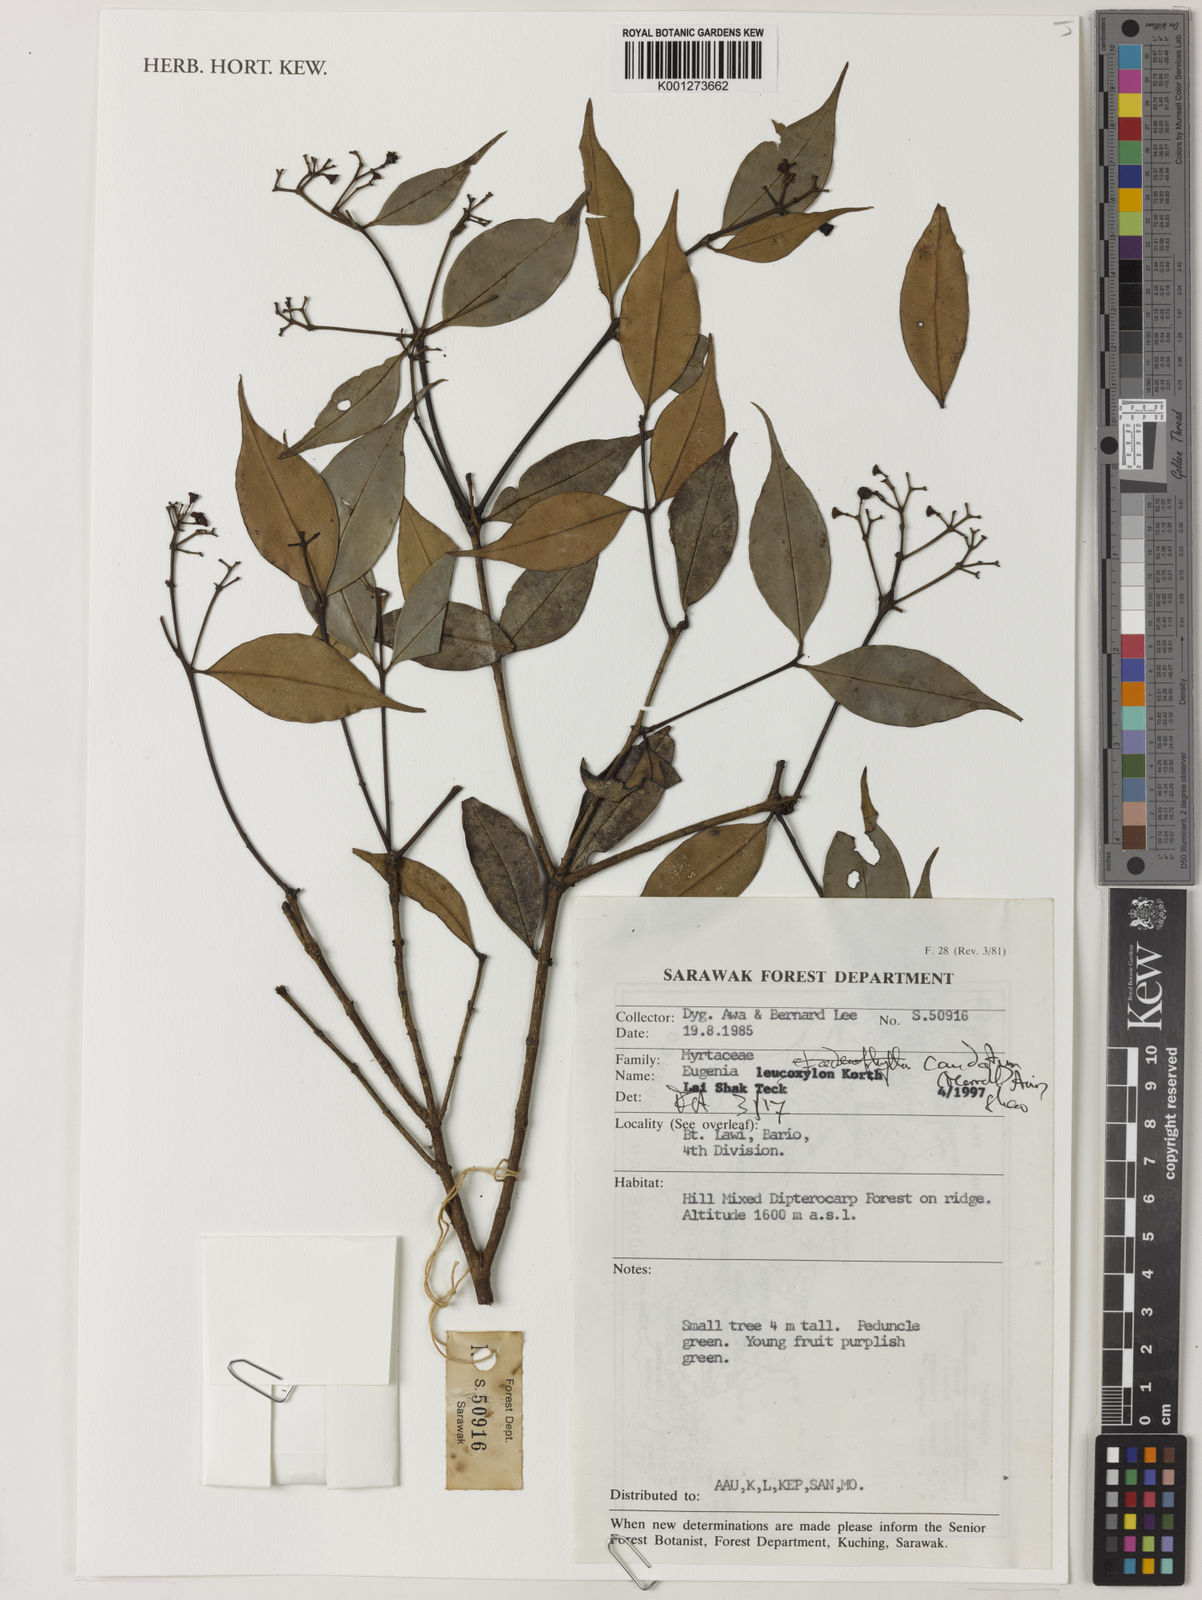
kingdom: Plantae
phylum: Tracheophyta
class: Magnoliopsida
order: Myrtales
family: Myrtaceae
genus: Syzygium
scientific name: Syzygium caudatum
